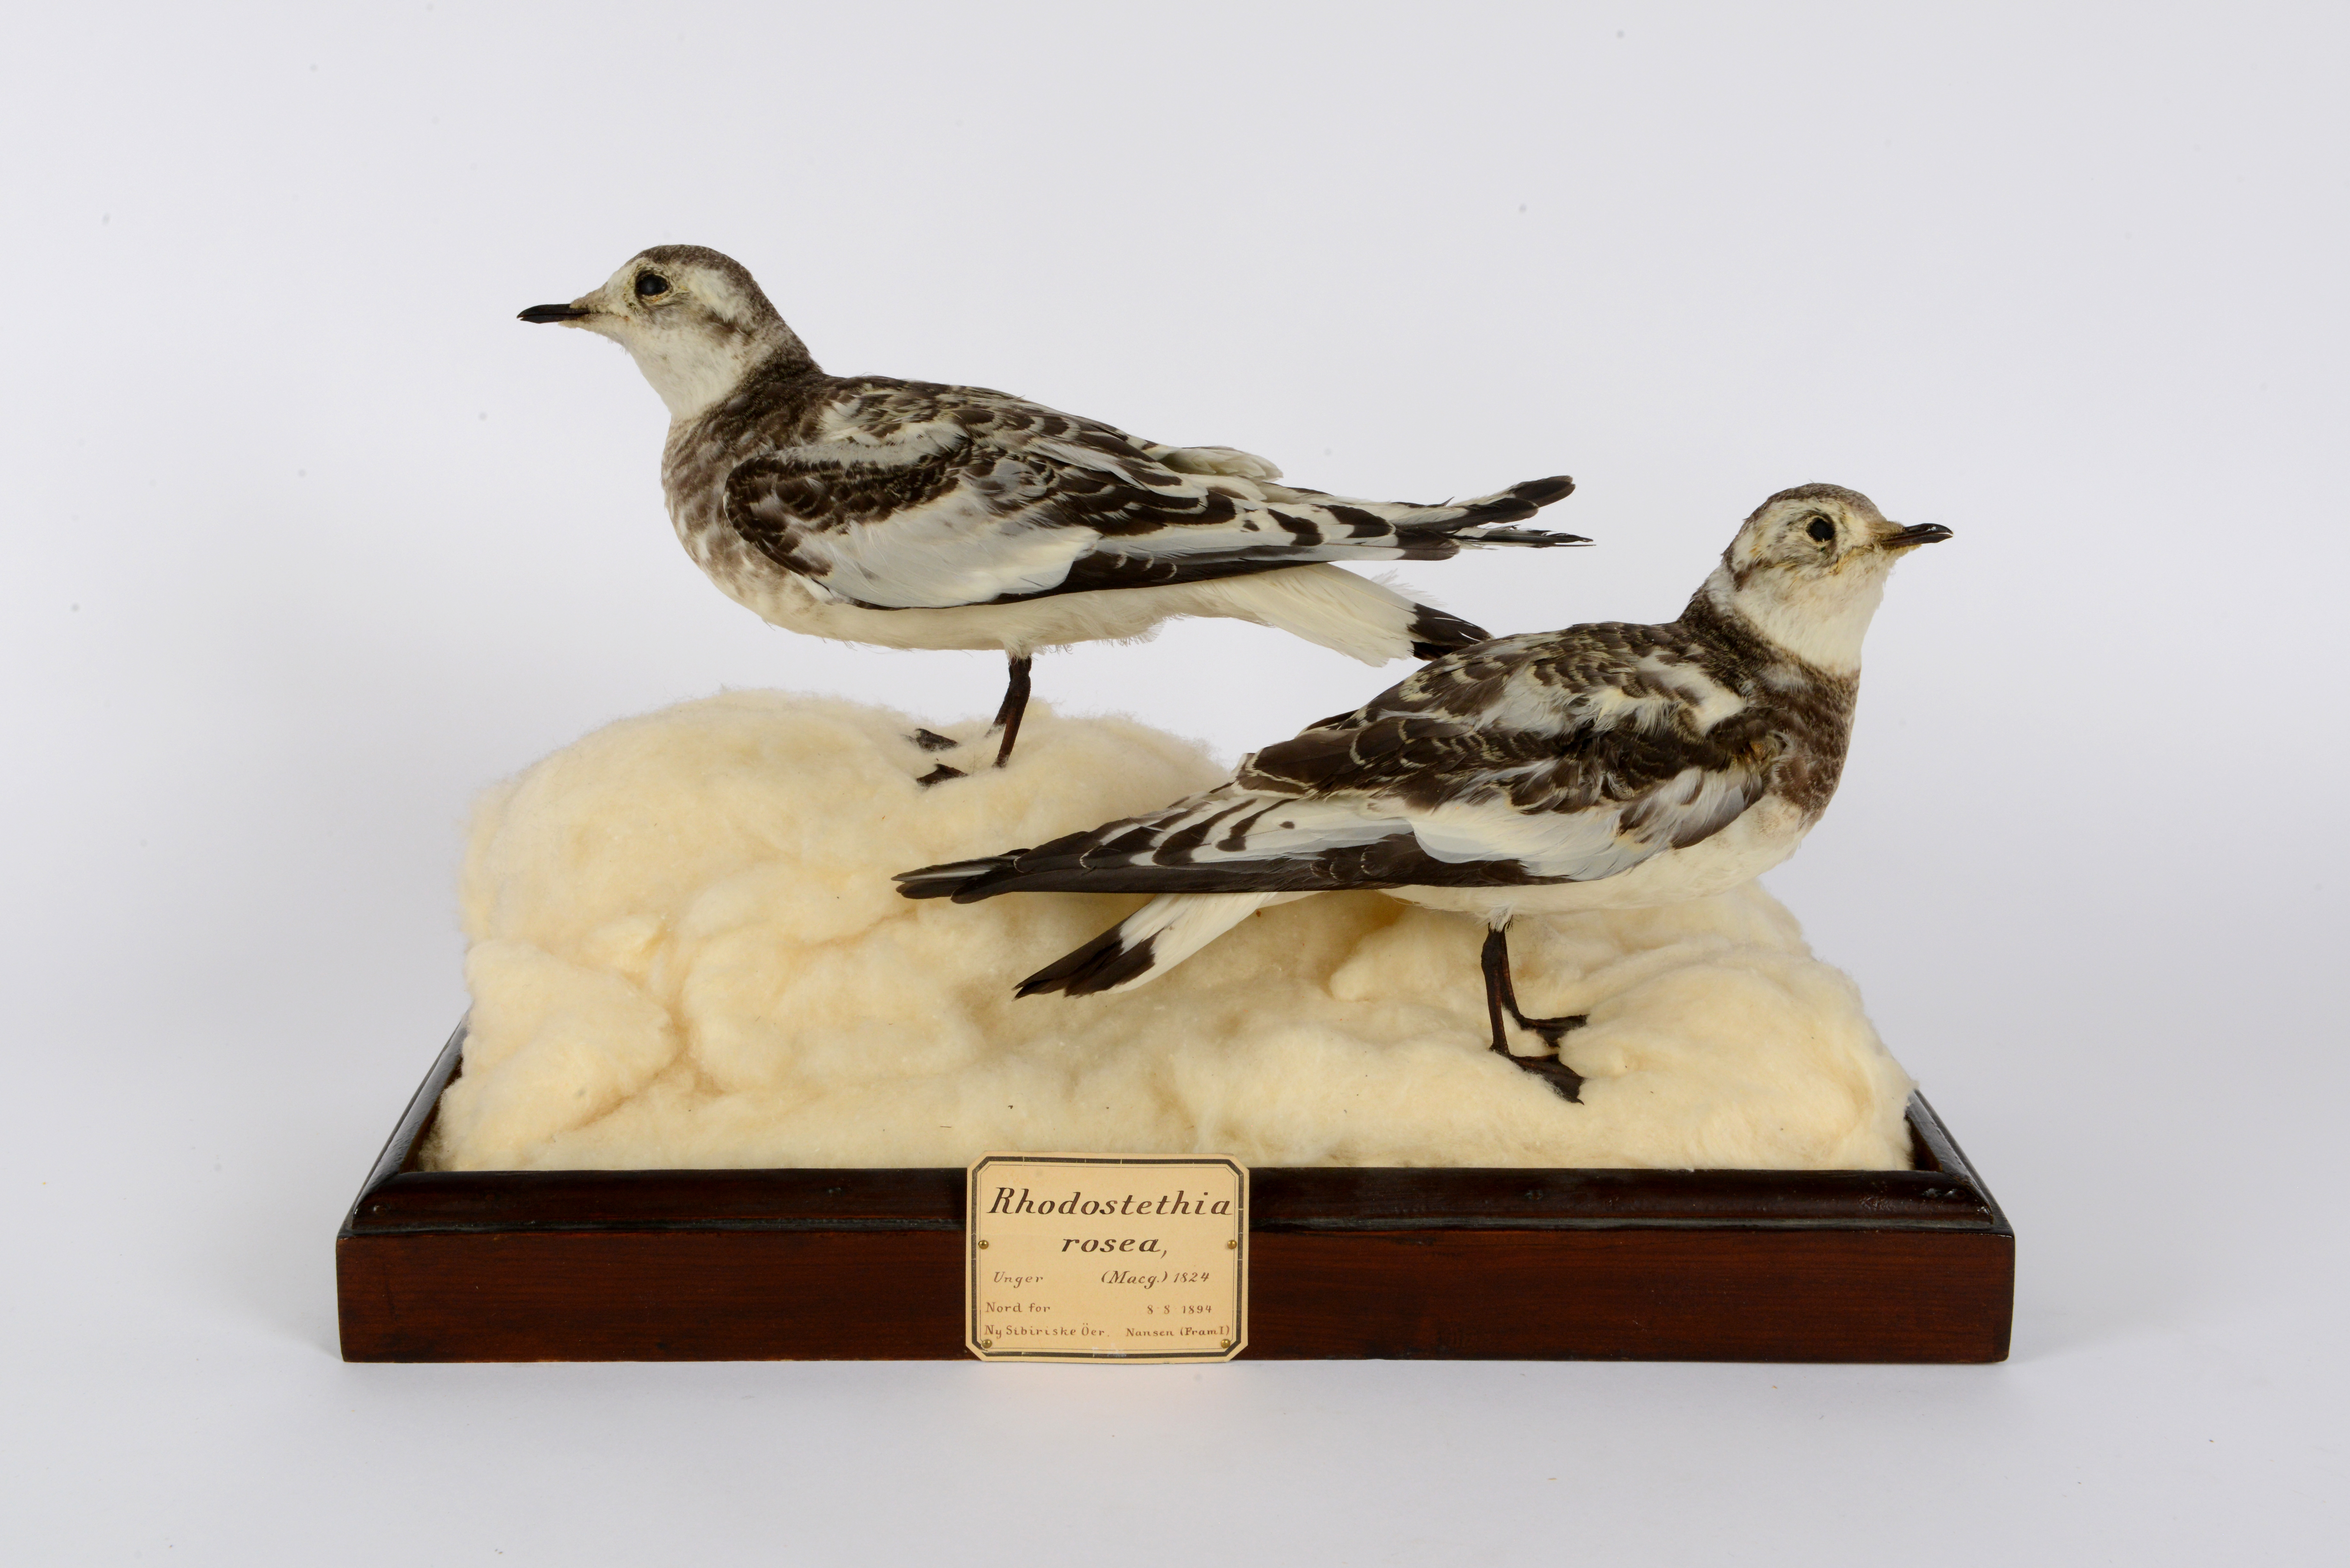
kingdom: Animalia
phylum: Chordata
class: Aves
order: Charadriiformes
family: Laridae
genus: Rhodostethia
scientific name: Rhodostethia rosea
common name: Ross's gull
